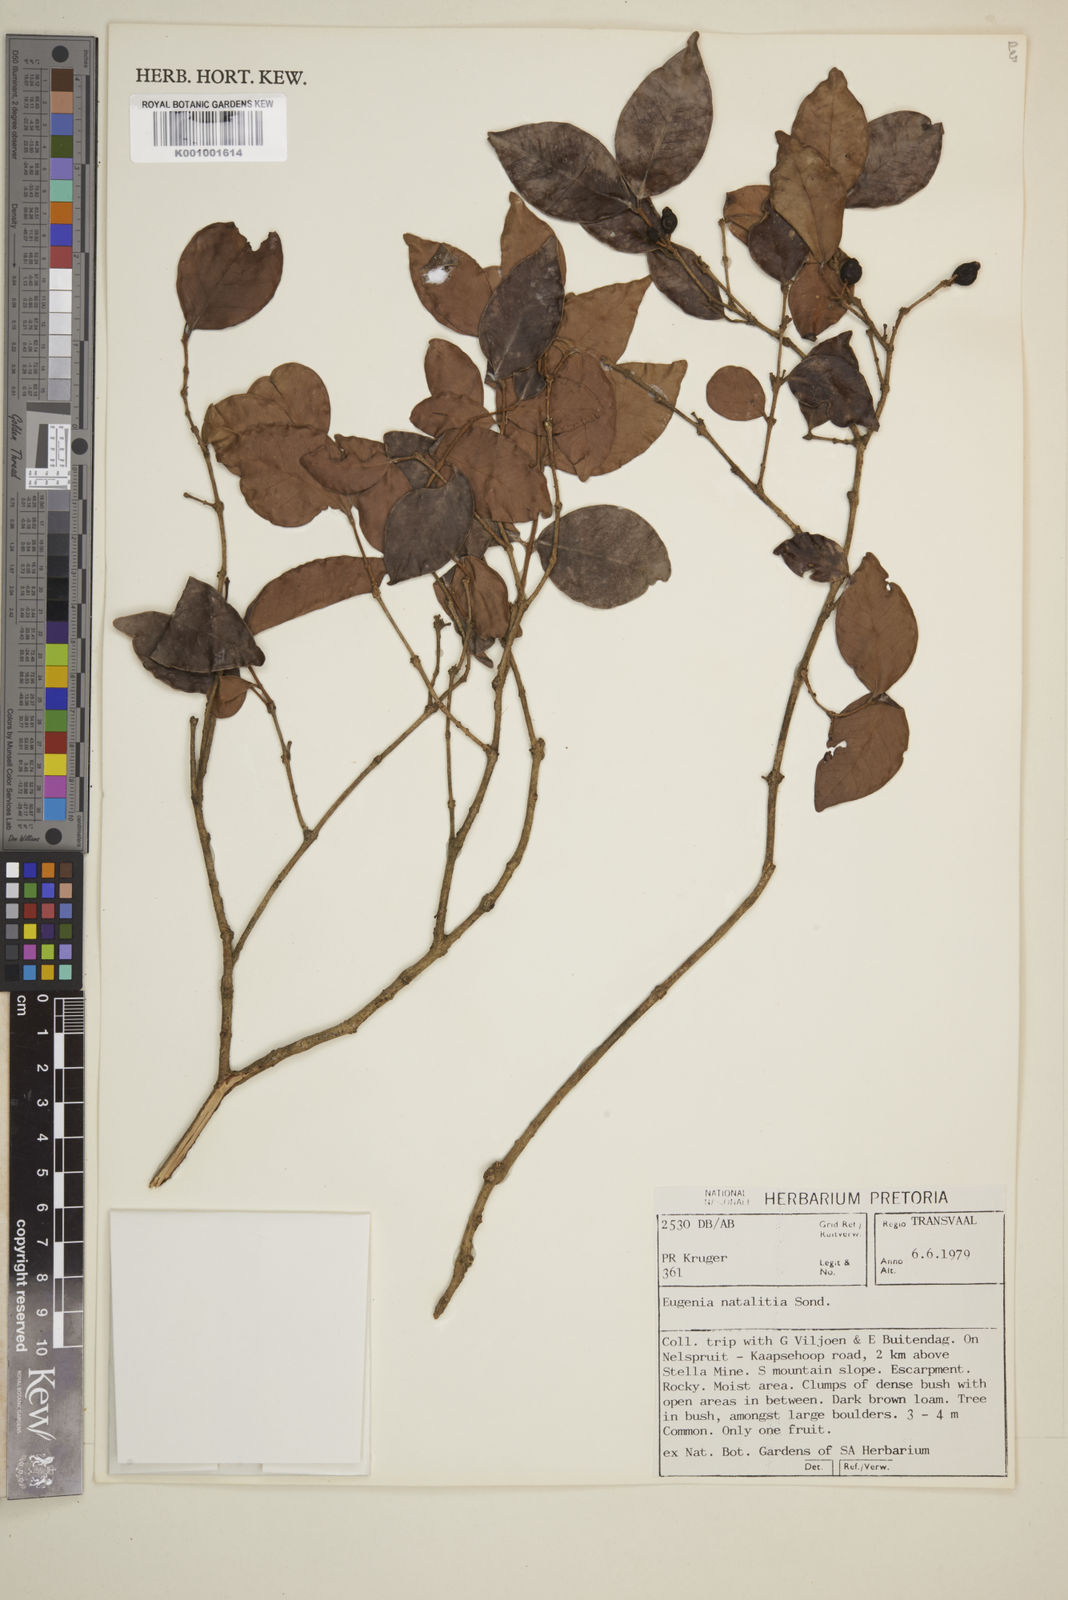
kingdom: Plantae
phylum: Tracheophyta
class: Magnoliopsida
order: Myrtales
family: Myrtaceae
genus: Eugenia
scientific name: Eugenia natalitia
